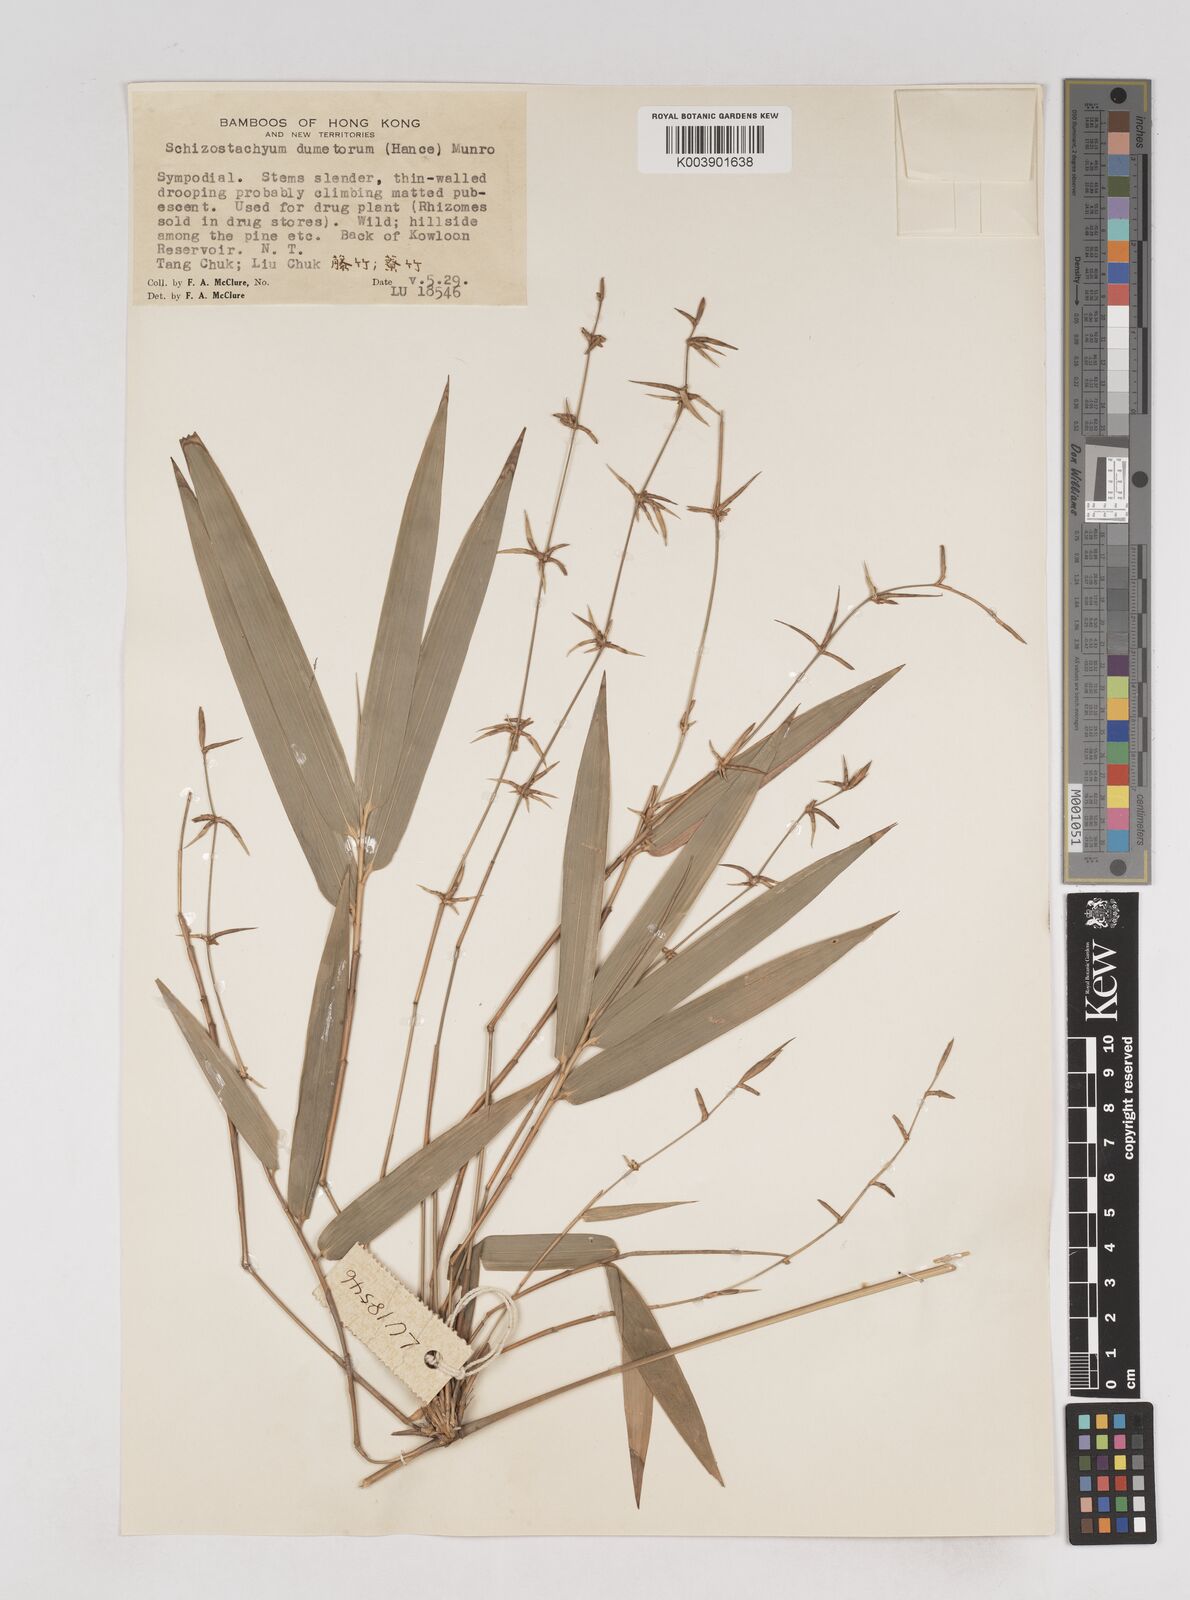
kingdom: Plantae
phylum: Tracheophyta
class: Liliopsida
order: Poales
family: Poaceae
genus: Schizostachyum
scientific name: Schizostachyum dumetorum
